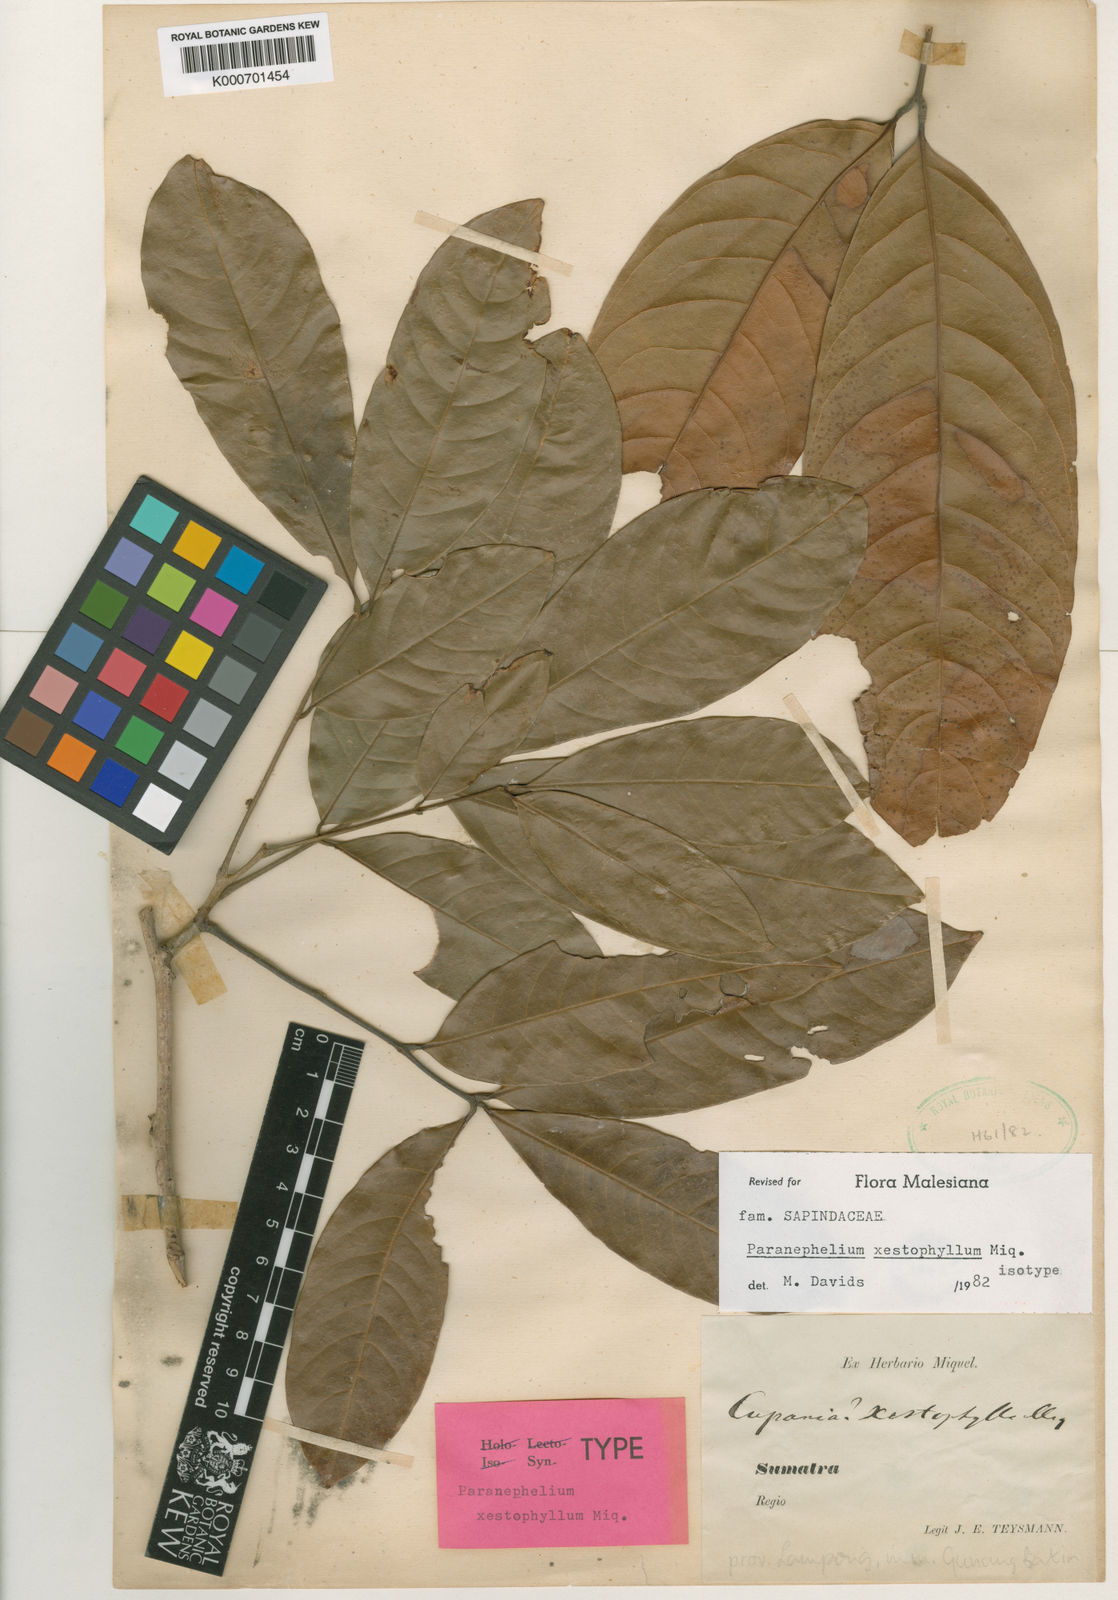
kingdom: Plantae
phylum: Tracheophyta
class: Magnoliopsida
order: Sapindales
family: Sapindaceae
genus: Paranephelium
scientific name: Paranephelium xestophyllum
